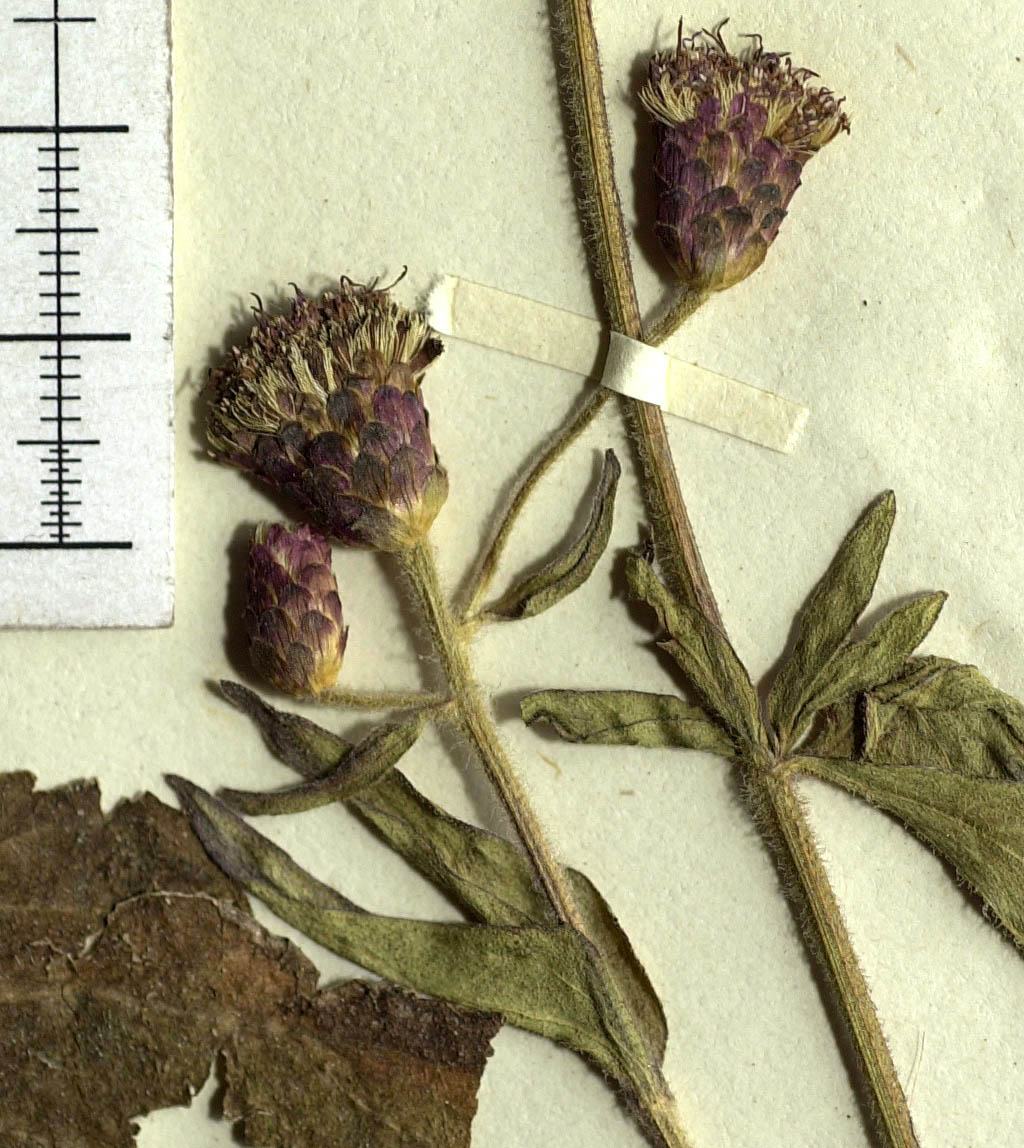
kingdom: Plantae
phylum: Tracheophyta
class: Magnoliopsida
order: Asterales
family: Asteraceae
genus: Chromolaena
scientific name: Chromolaena bangii
